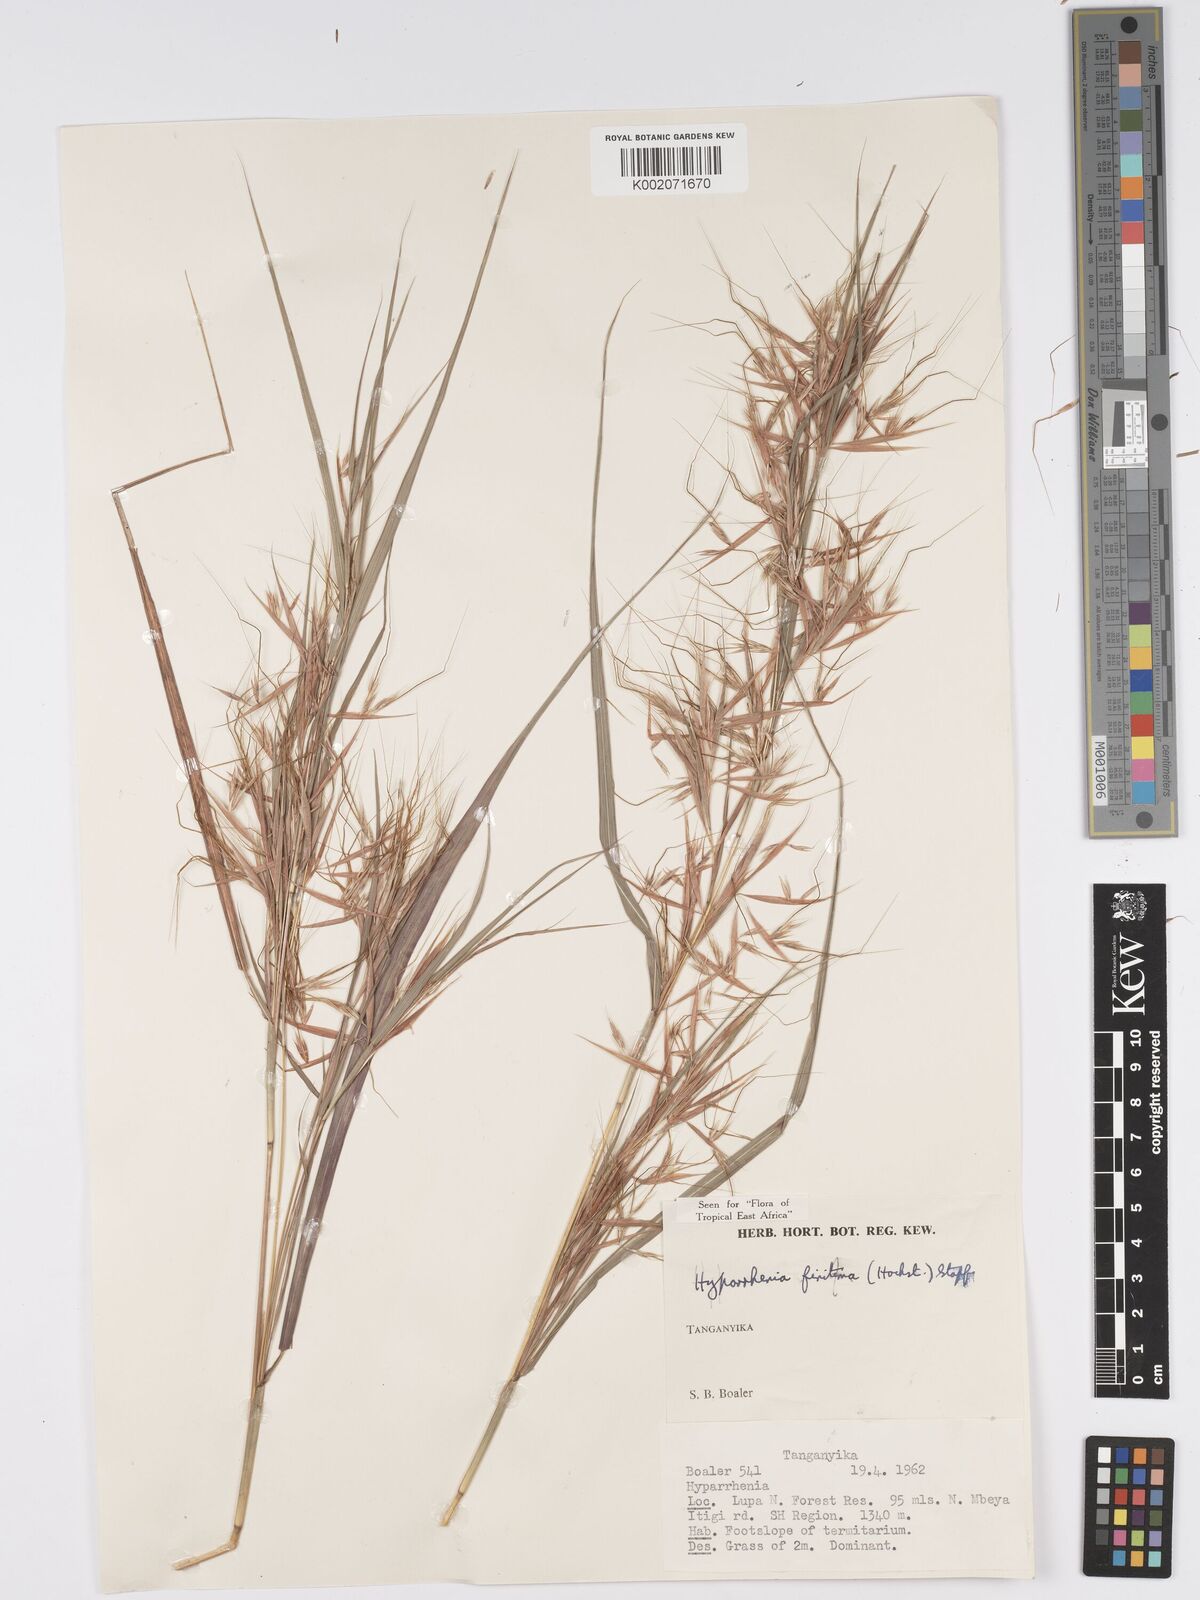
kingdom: Plantae
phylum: Tracheophyta
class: Liliopsida
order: Poales
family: Poaceae
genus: Hyparrhenia
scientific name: Hyparrhenia finitima
